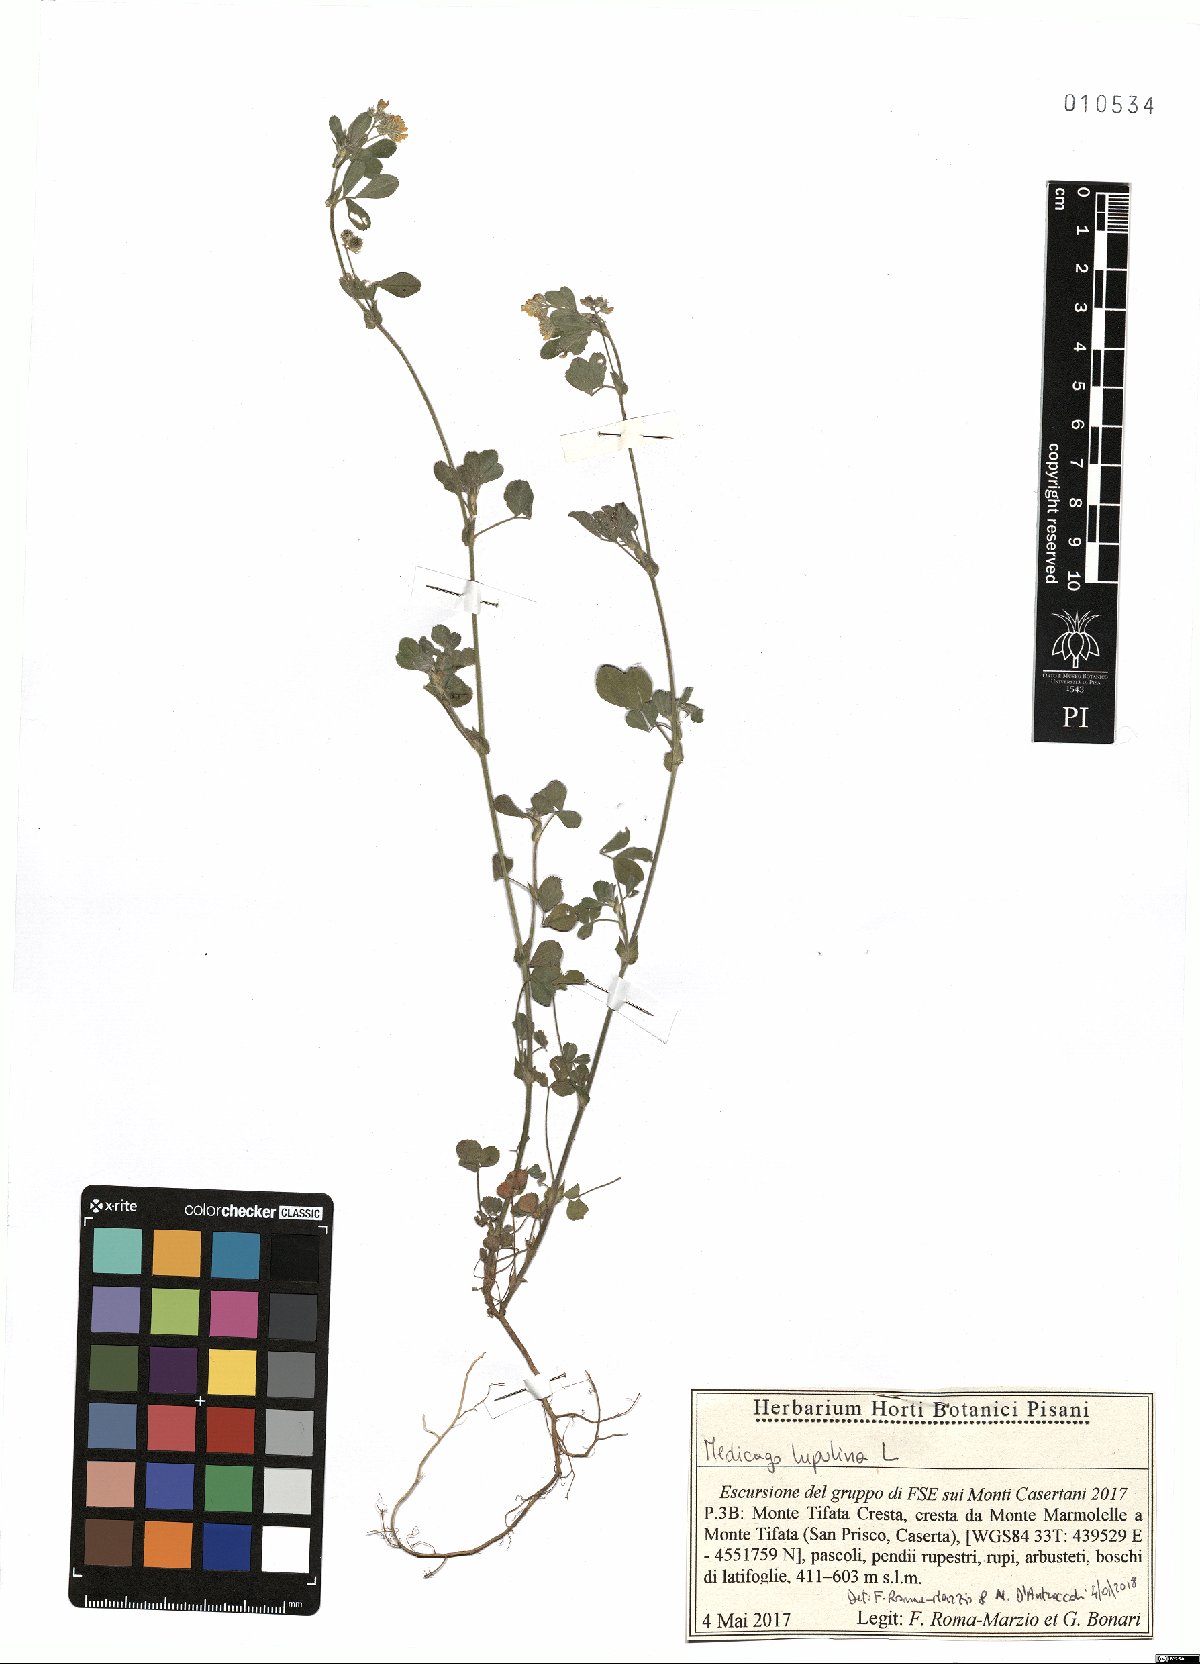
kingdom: Plantae
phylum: Tracheophyta
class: Magnoliopsida
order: Fabales
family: Fabaceae
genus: Medicago
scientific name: Medicago lupulina
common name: Black medick
